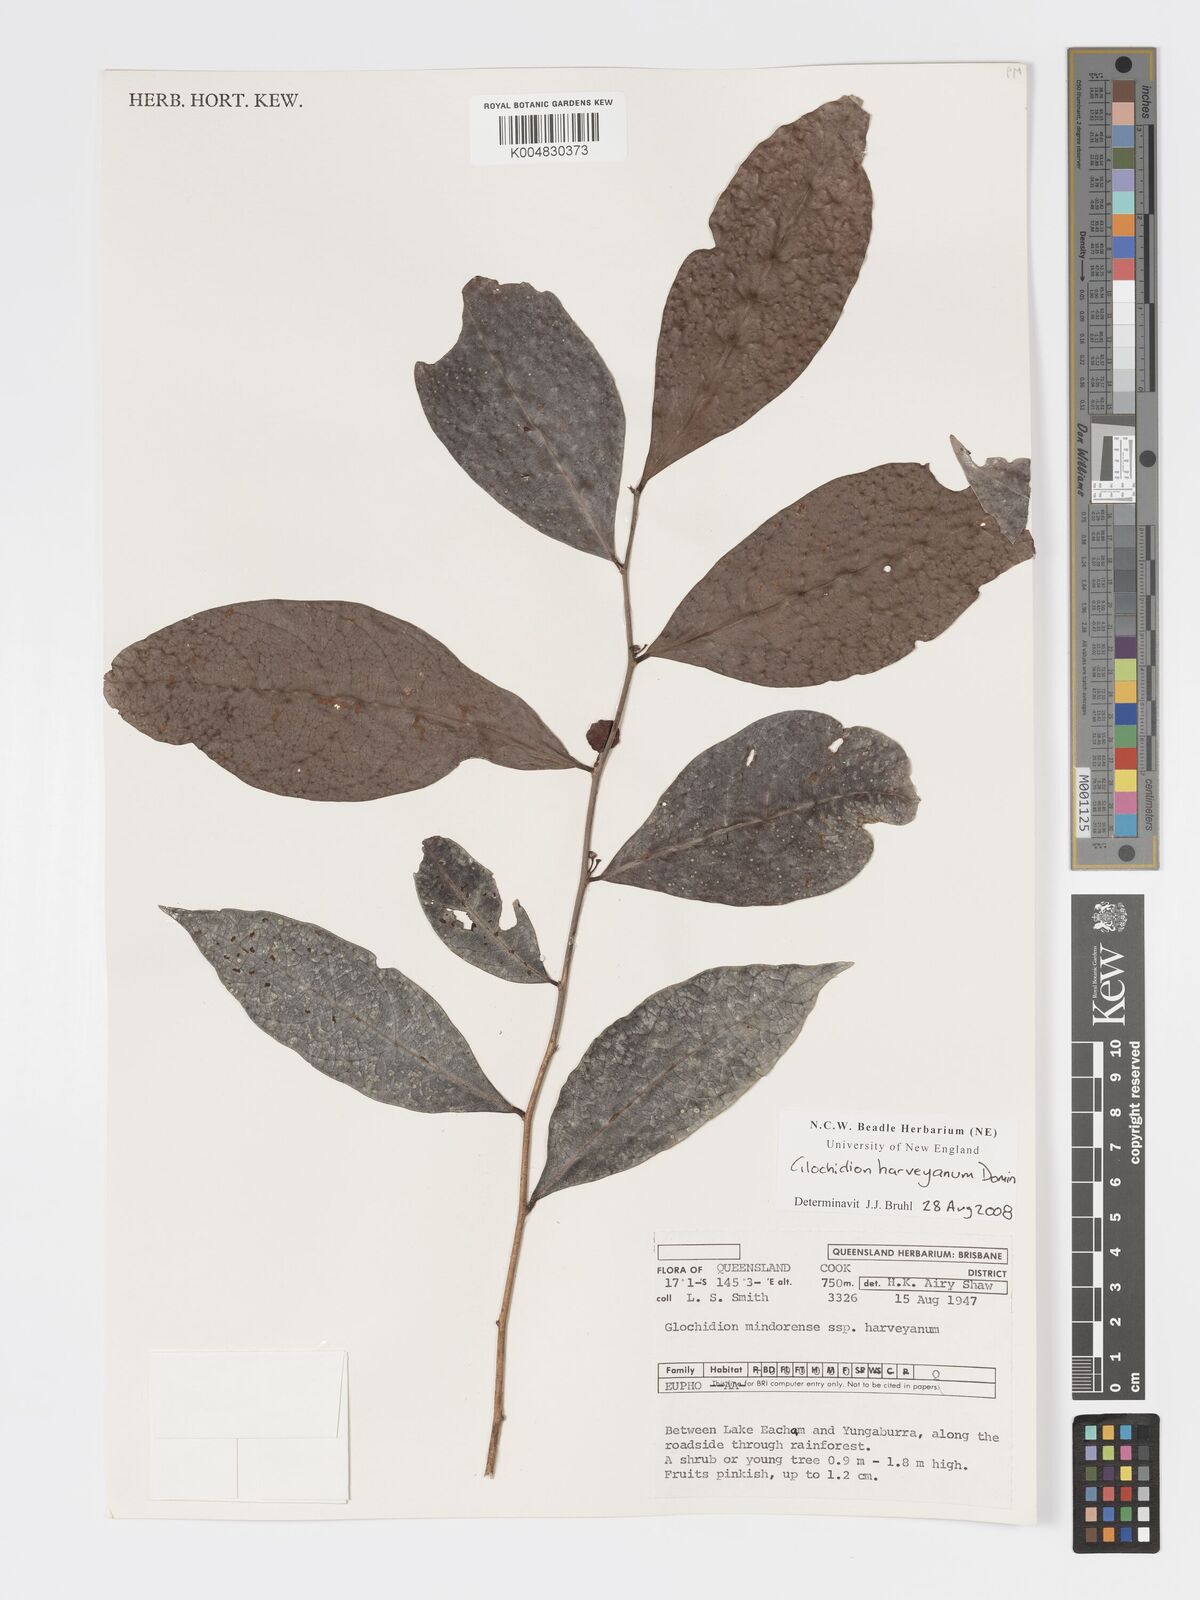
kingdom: Plantae
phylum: Tracheophyta
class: Magnoliopsida
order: Malpighiales
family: Phyllanthaceae
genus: Glochidion
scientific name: Glochidion harveyanum
